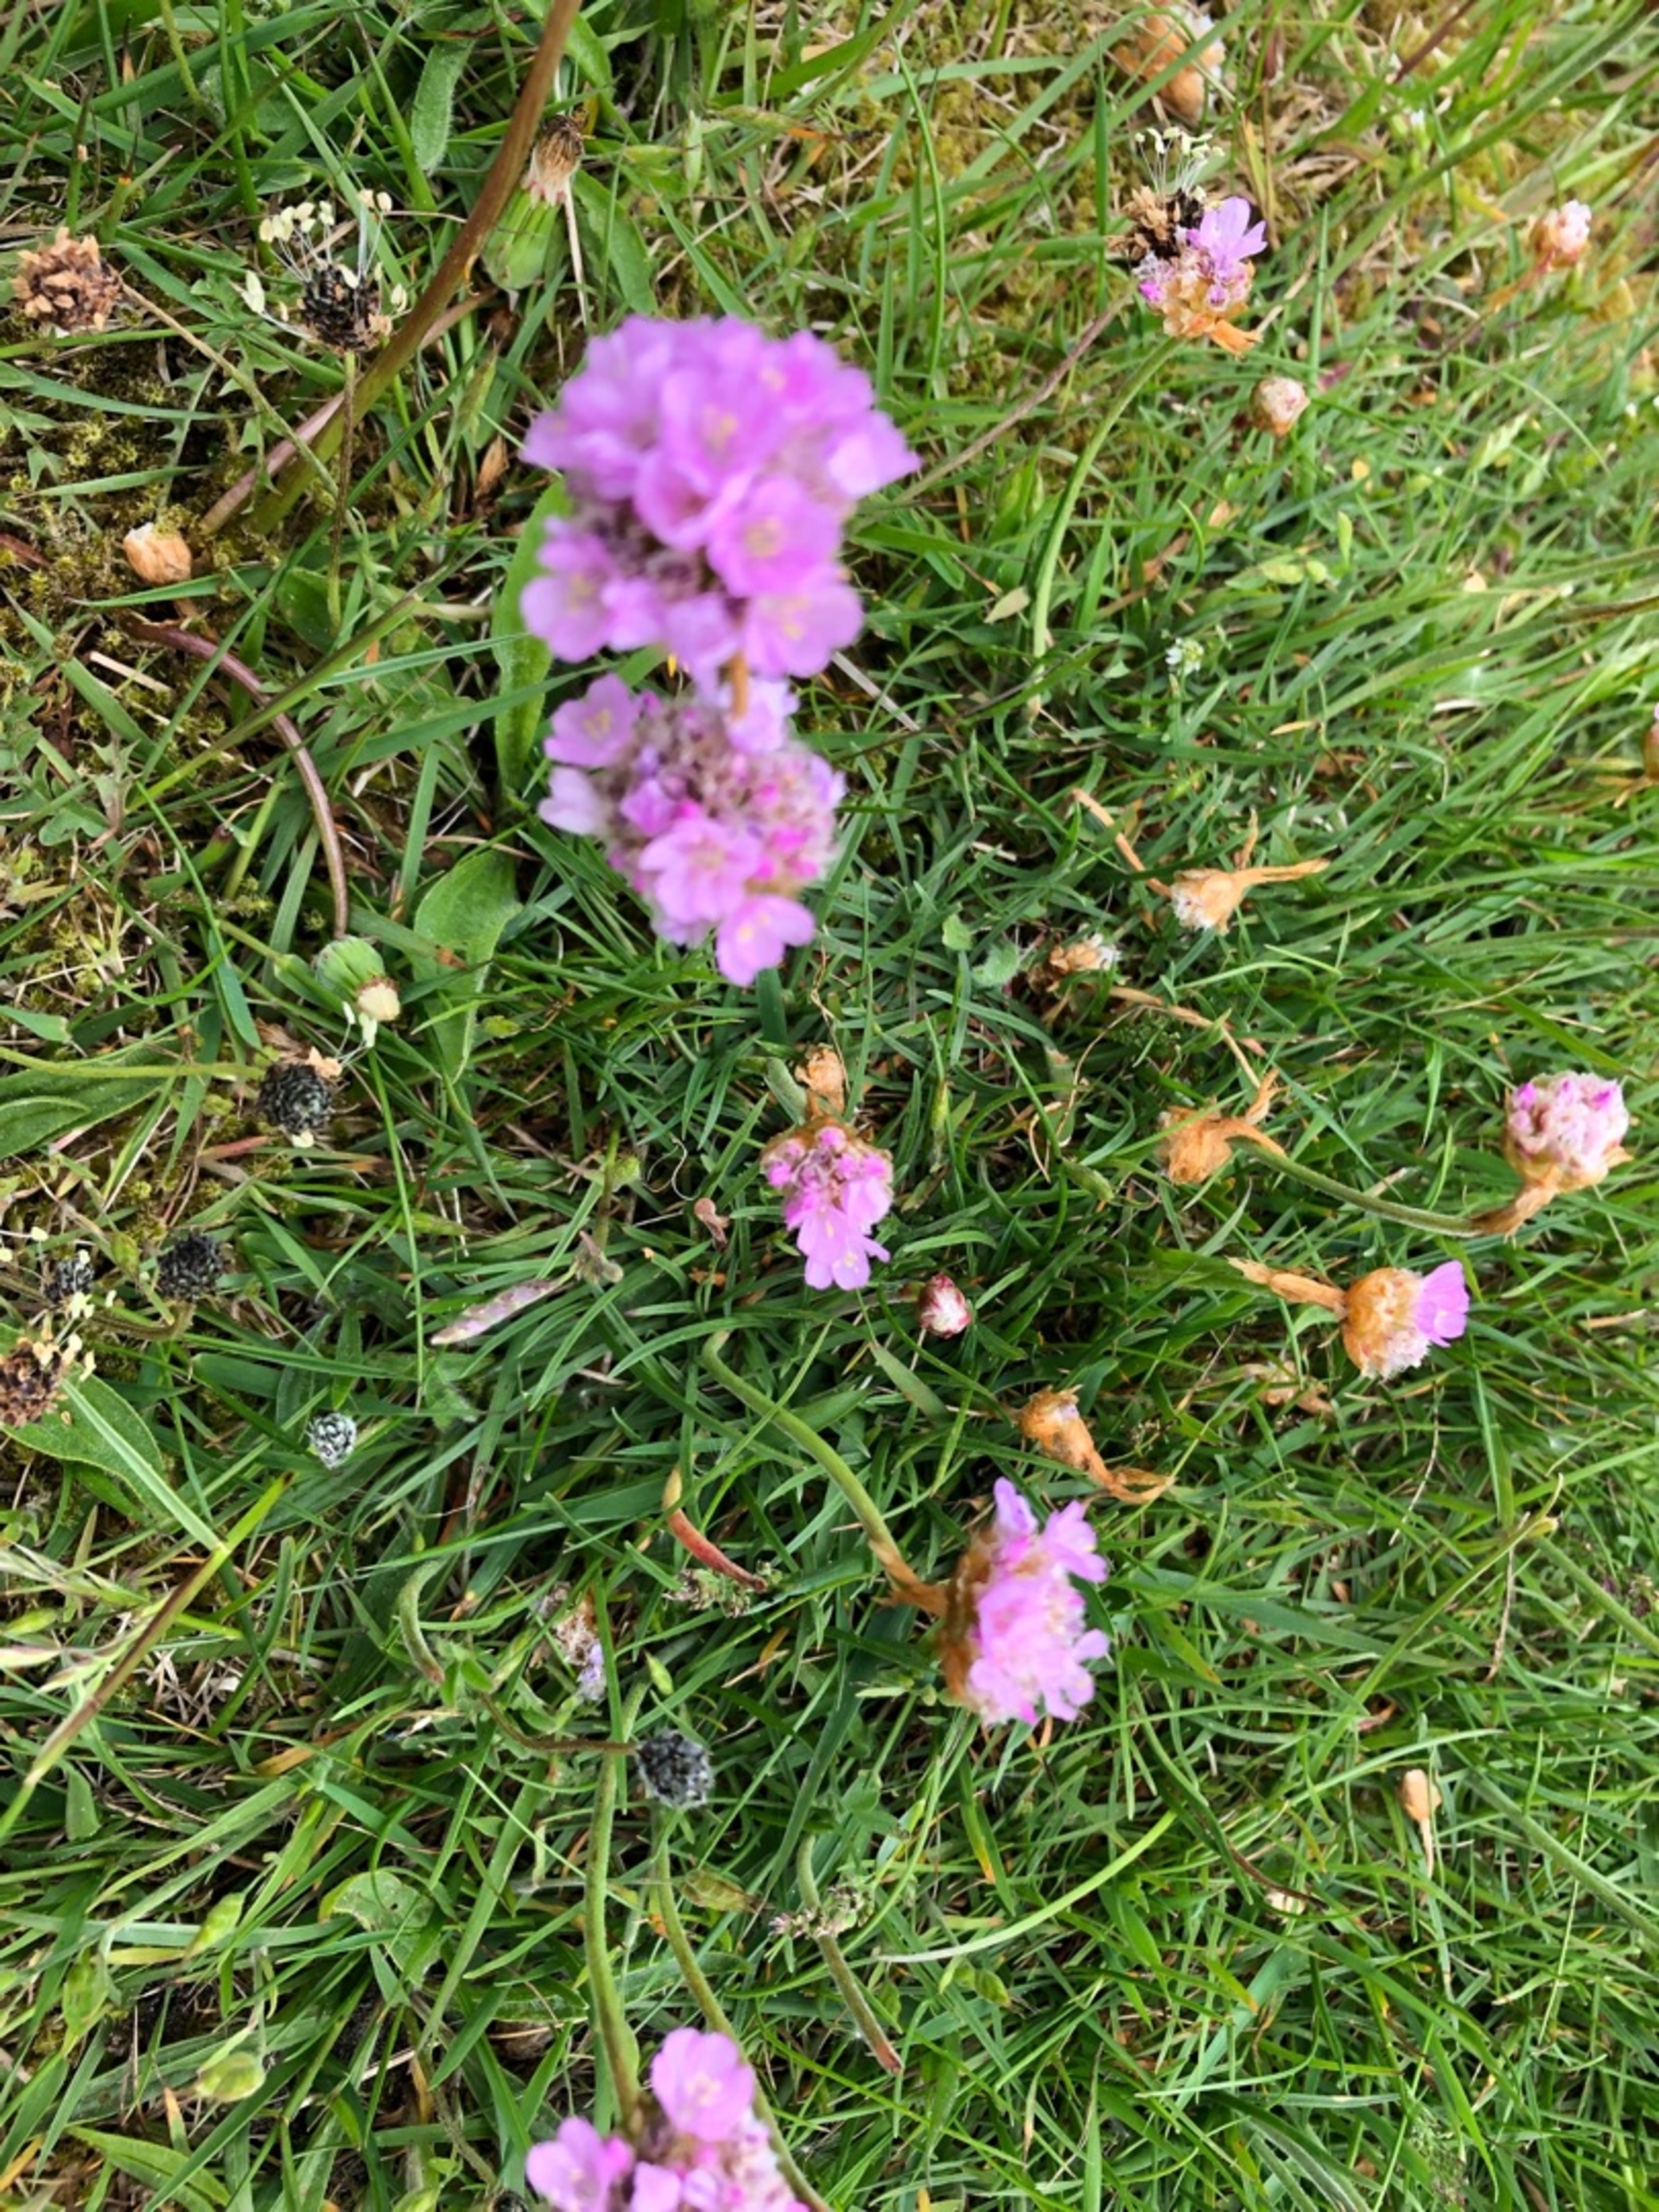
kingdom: Plantae
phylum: Tracheophyta
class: Magnoliopsida
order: Caryophyllales
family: Plumbaginaceae
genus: Armeria
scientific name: Armeria maritima
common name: Engelskgræs
